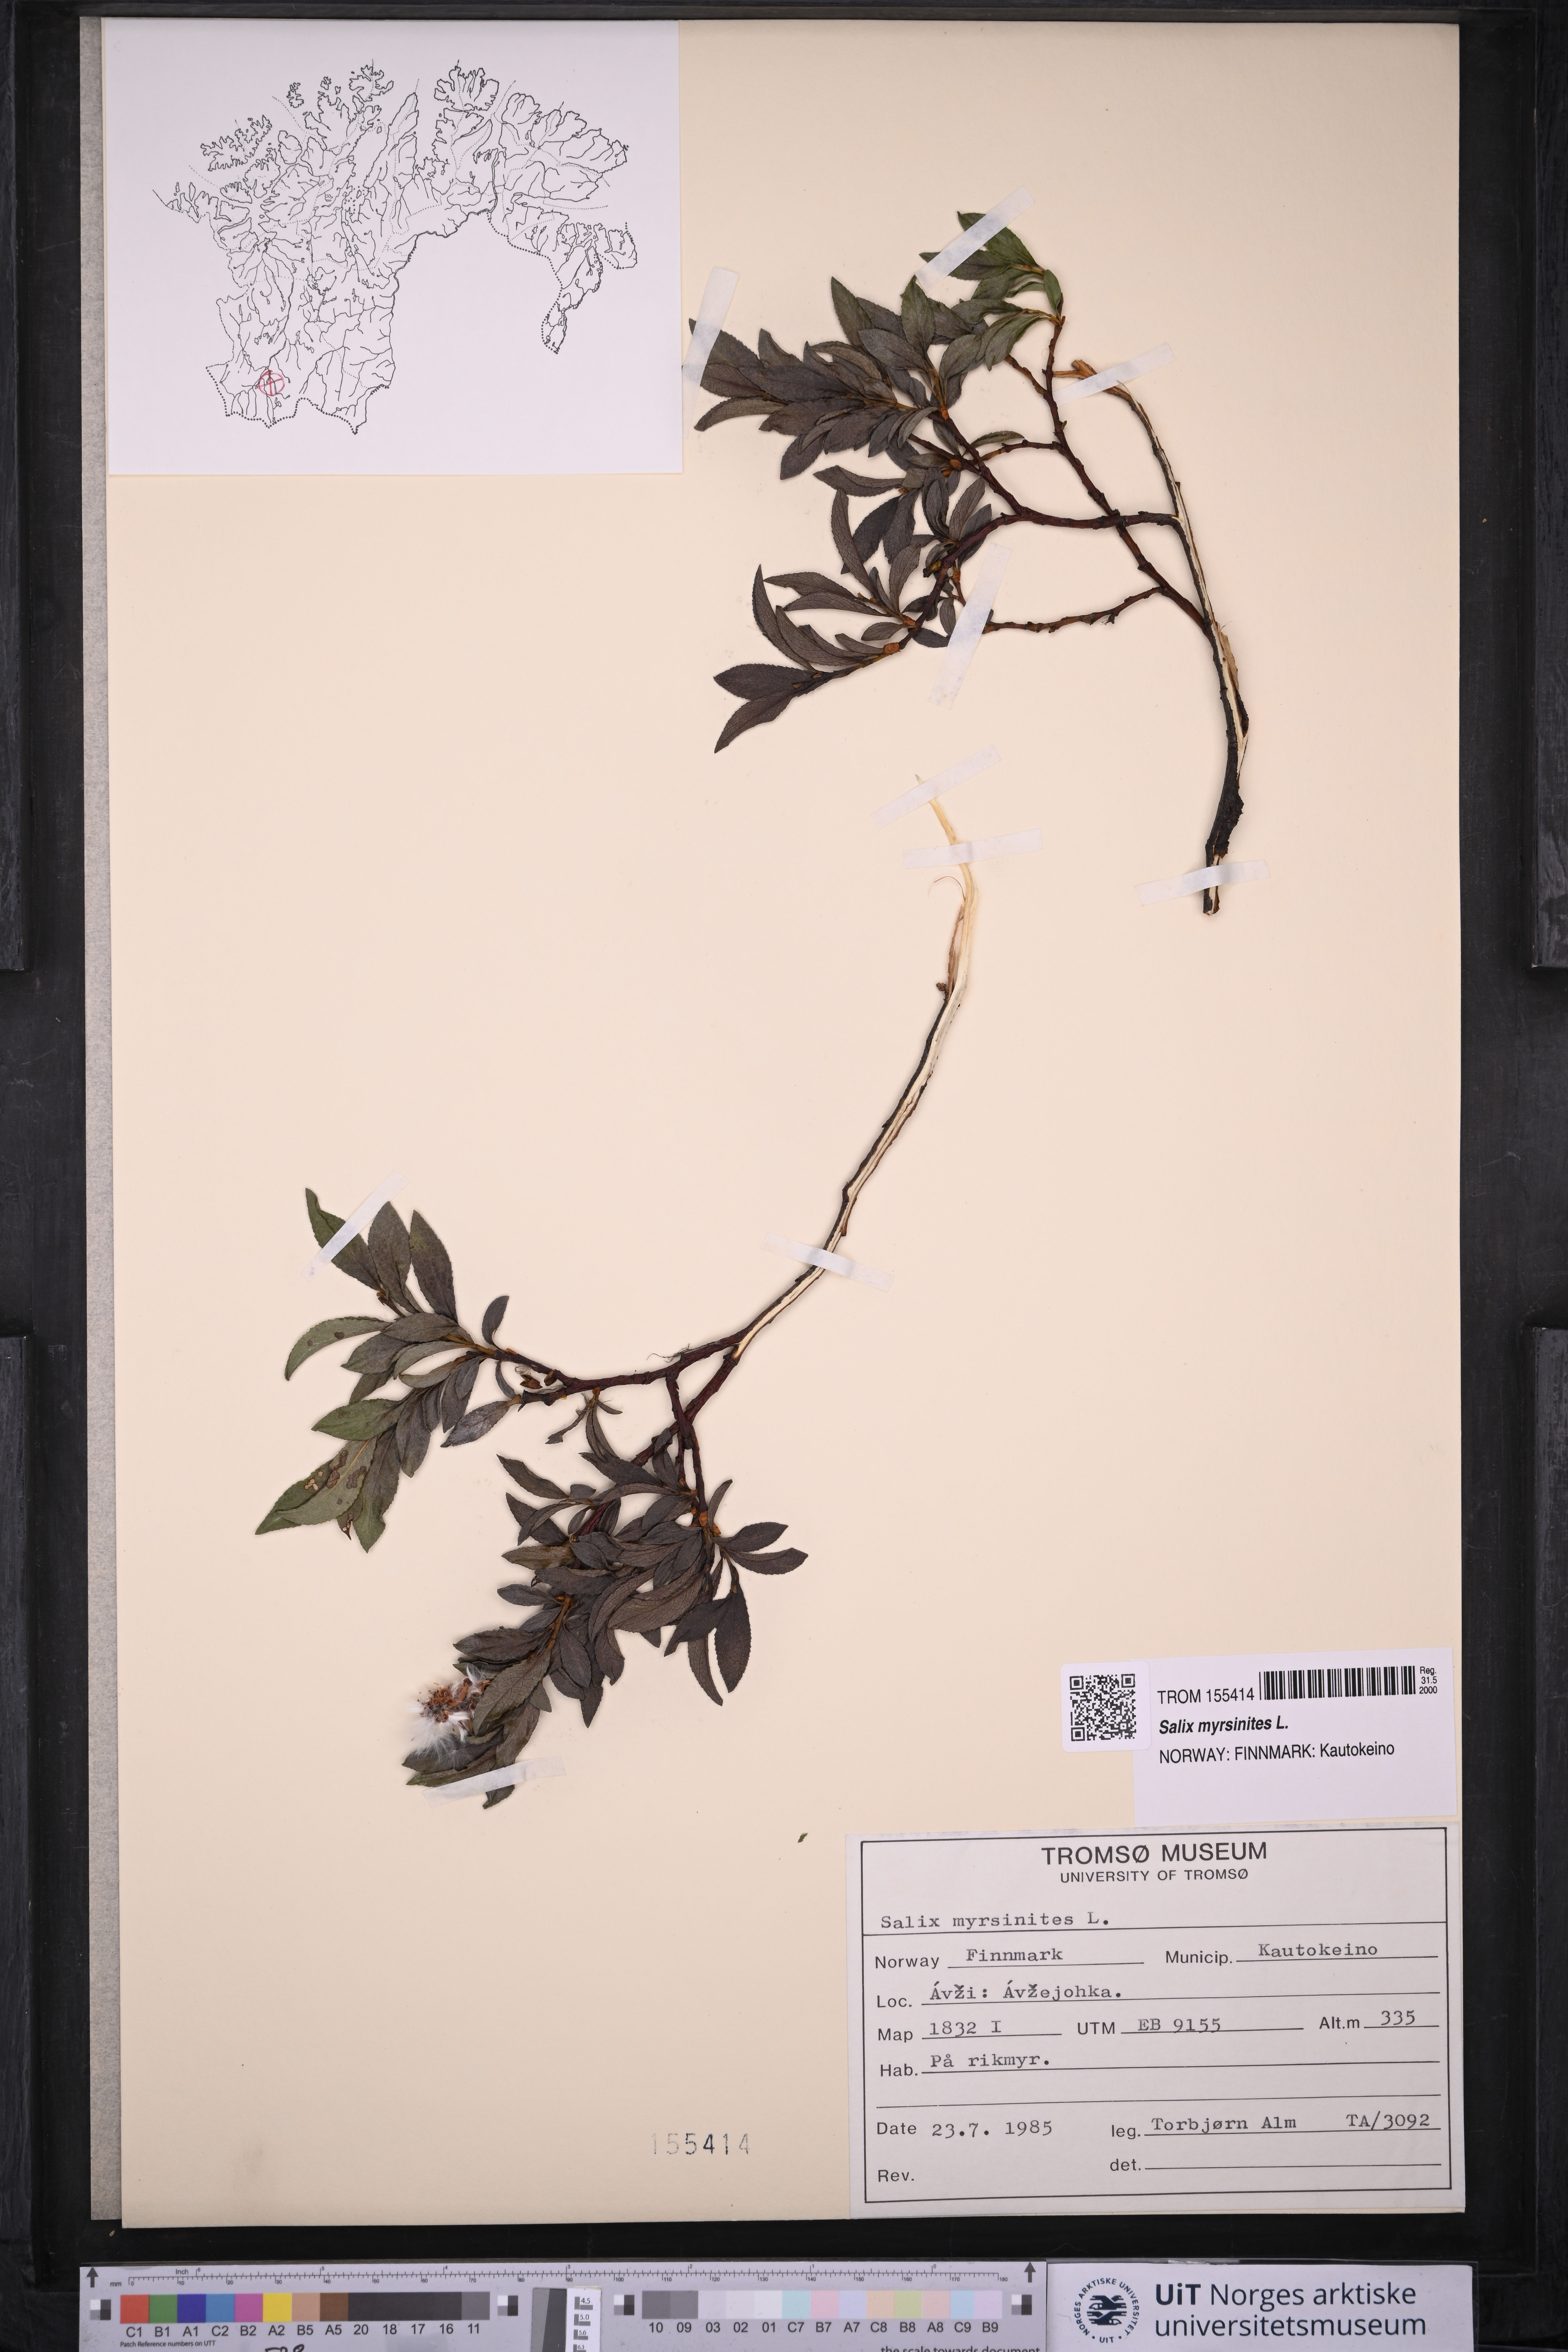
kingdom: Plantae
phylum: Tracheophyta
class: Magnoliopsida
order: Malpighiales
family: Salicaceae
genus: Salix
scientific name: Salix myrsinites
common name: Myrtle willow
